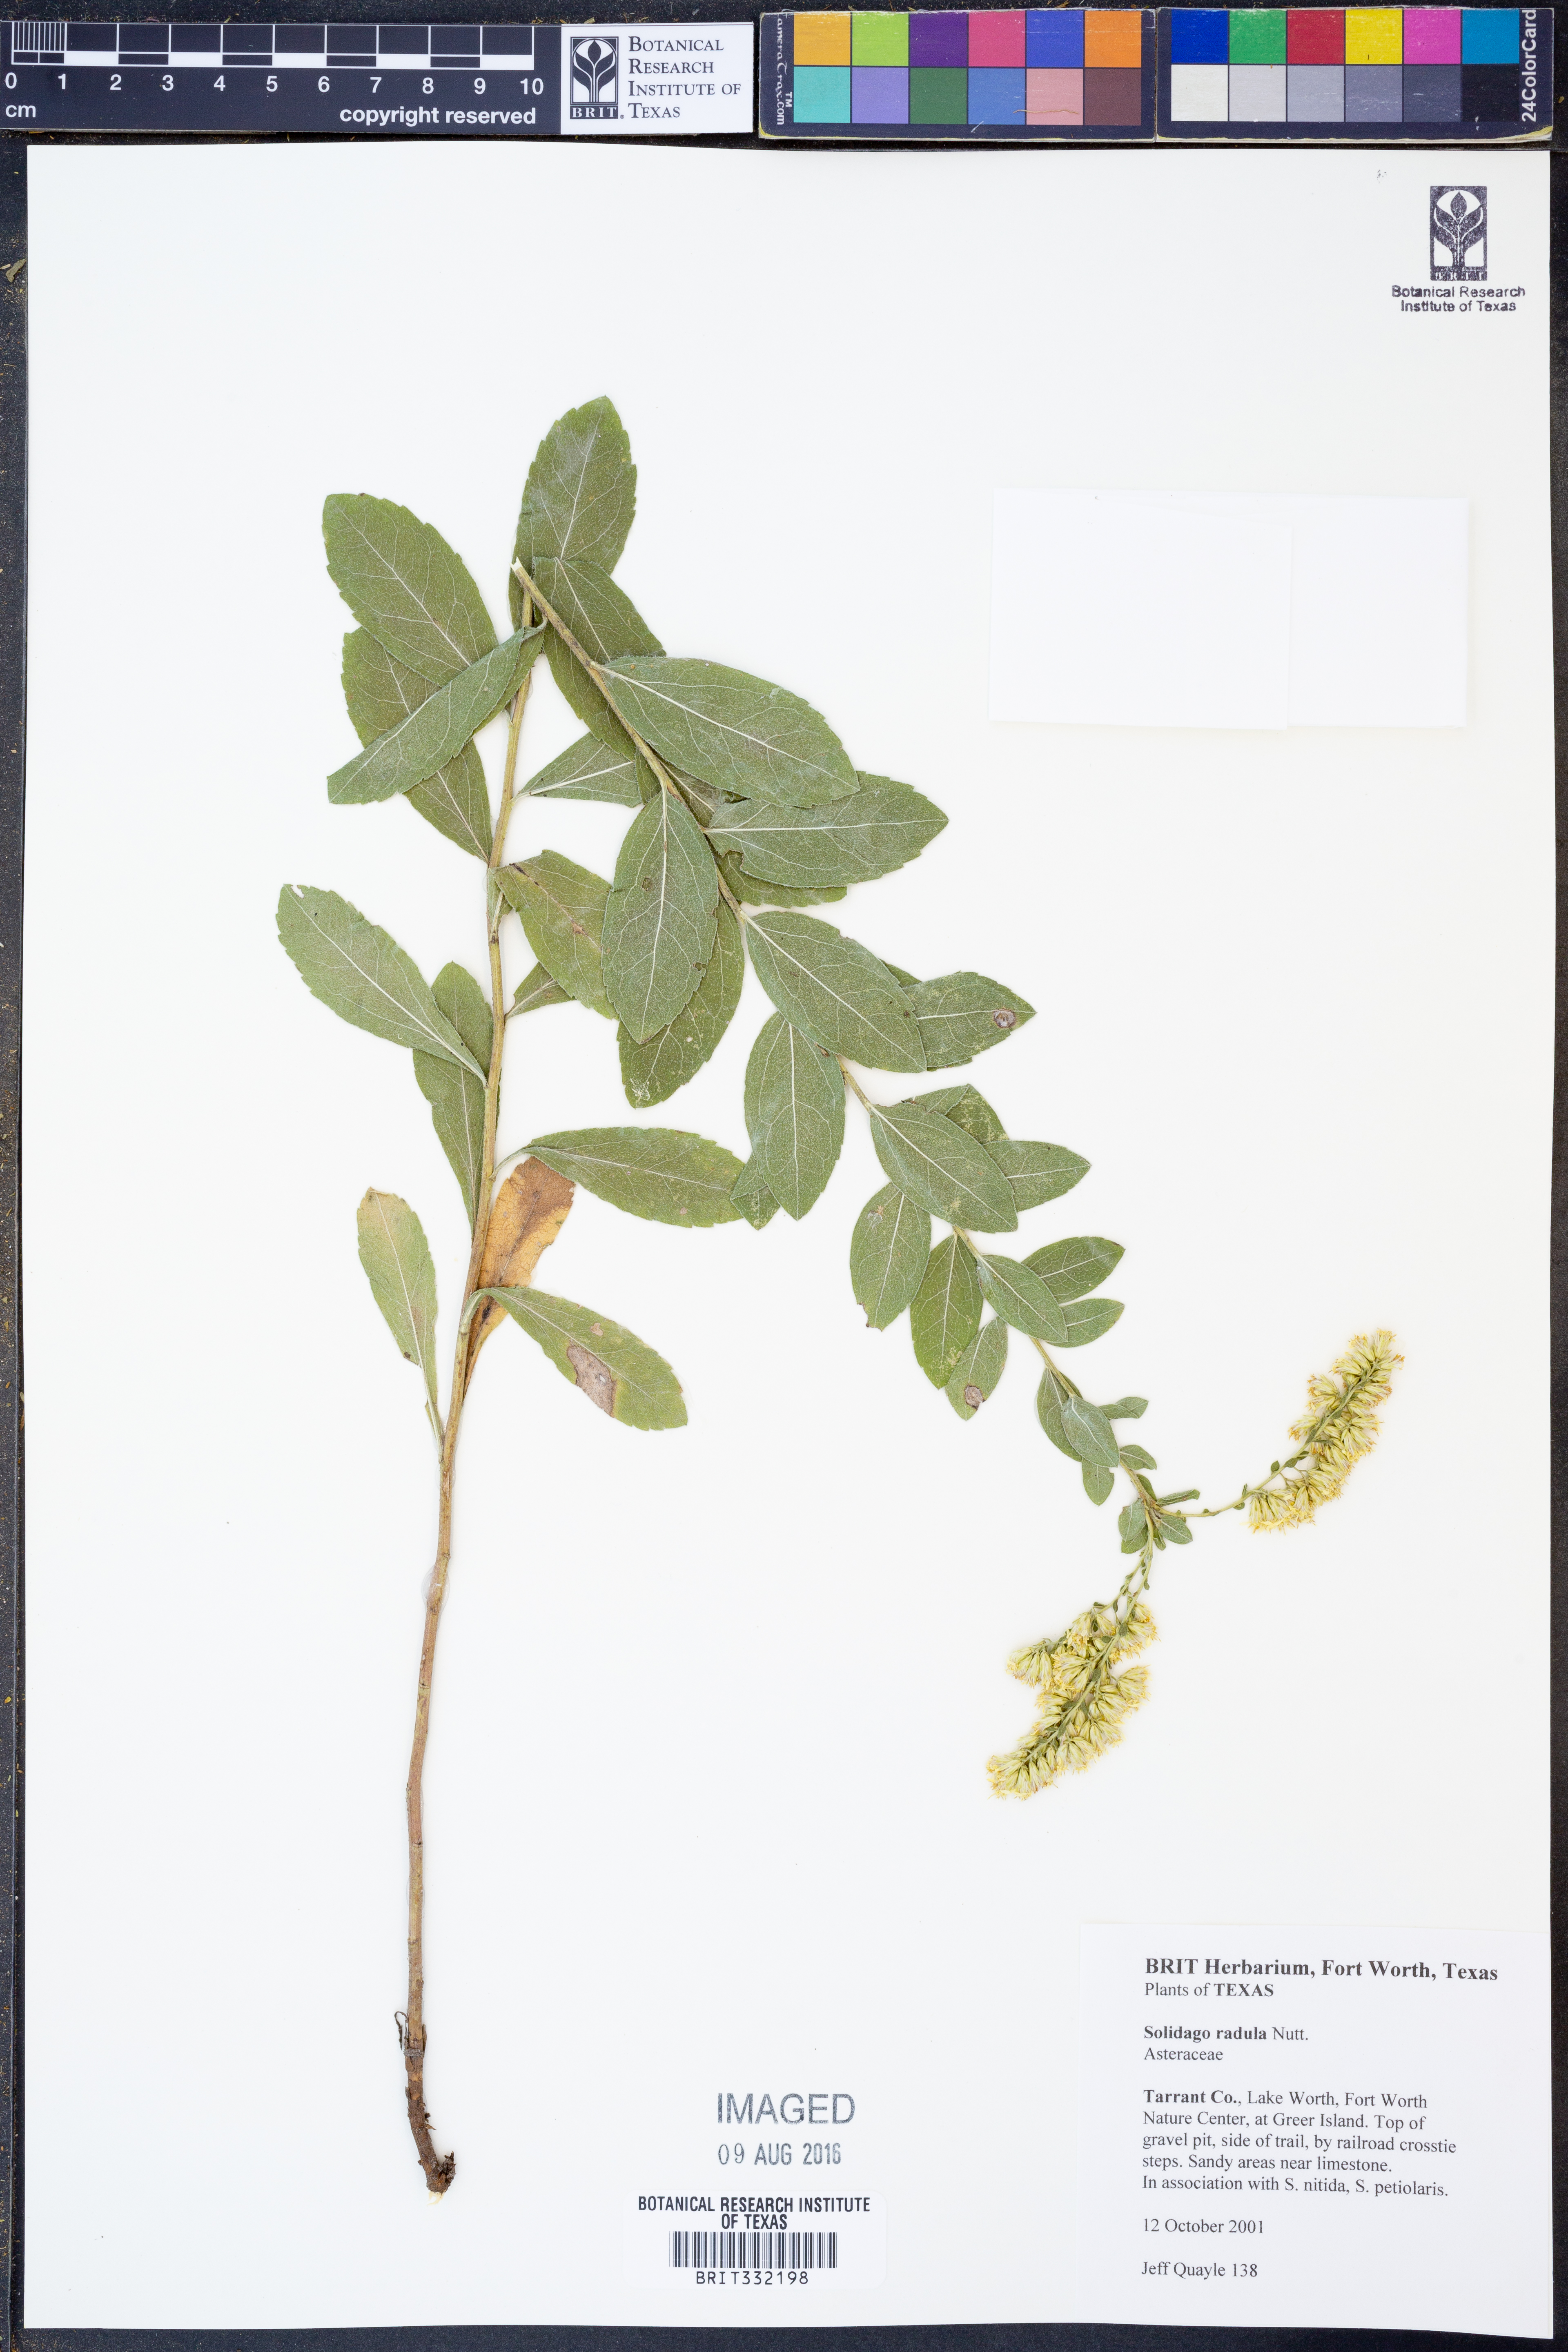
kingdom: Plantae
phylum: Tracheophyta
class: Magnoliopsida
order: Asterales
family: Asteraceae
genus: Solidago
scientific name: Solidago radula
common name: Western rough goldenrod
